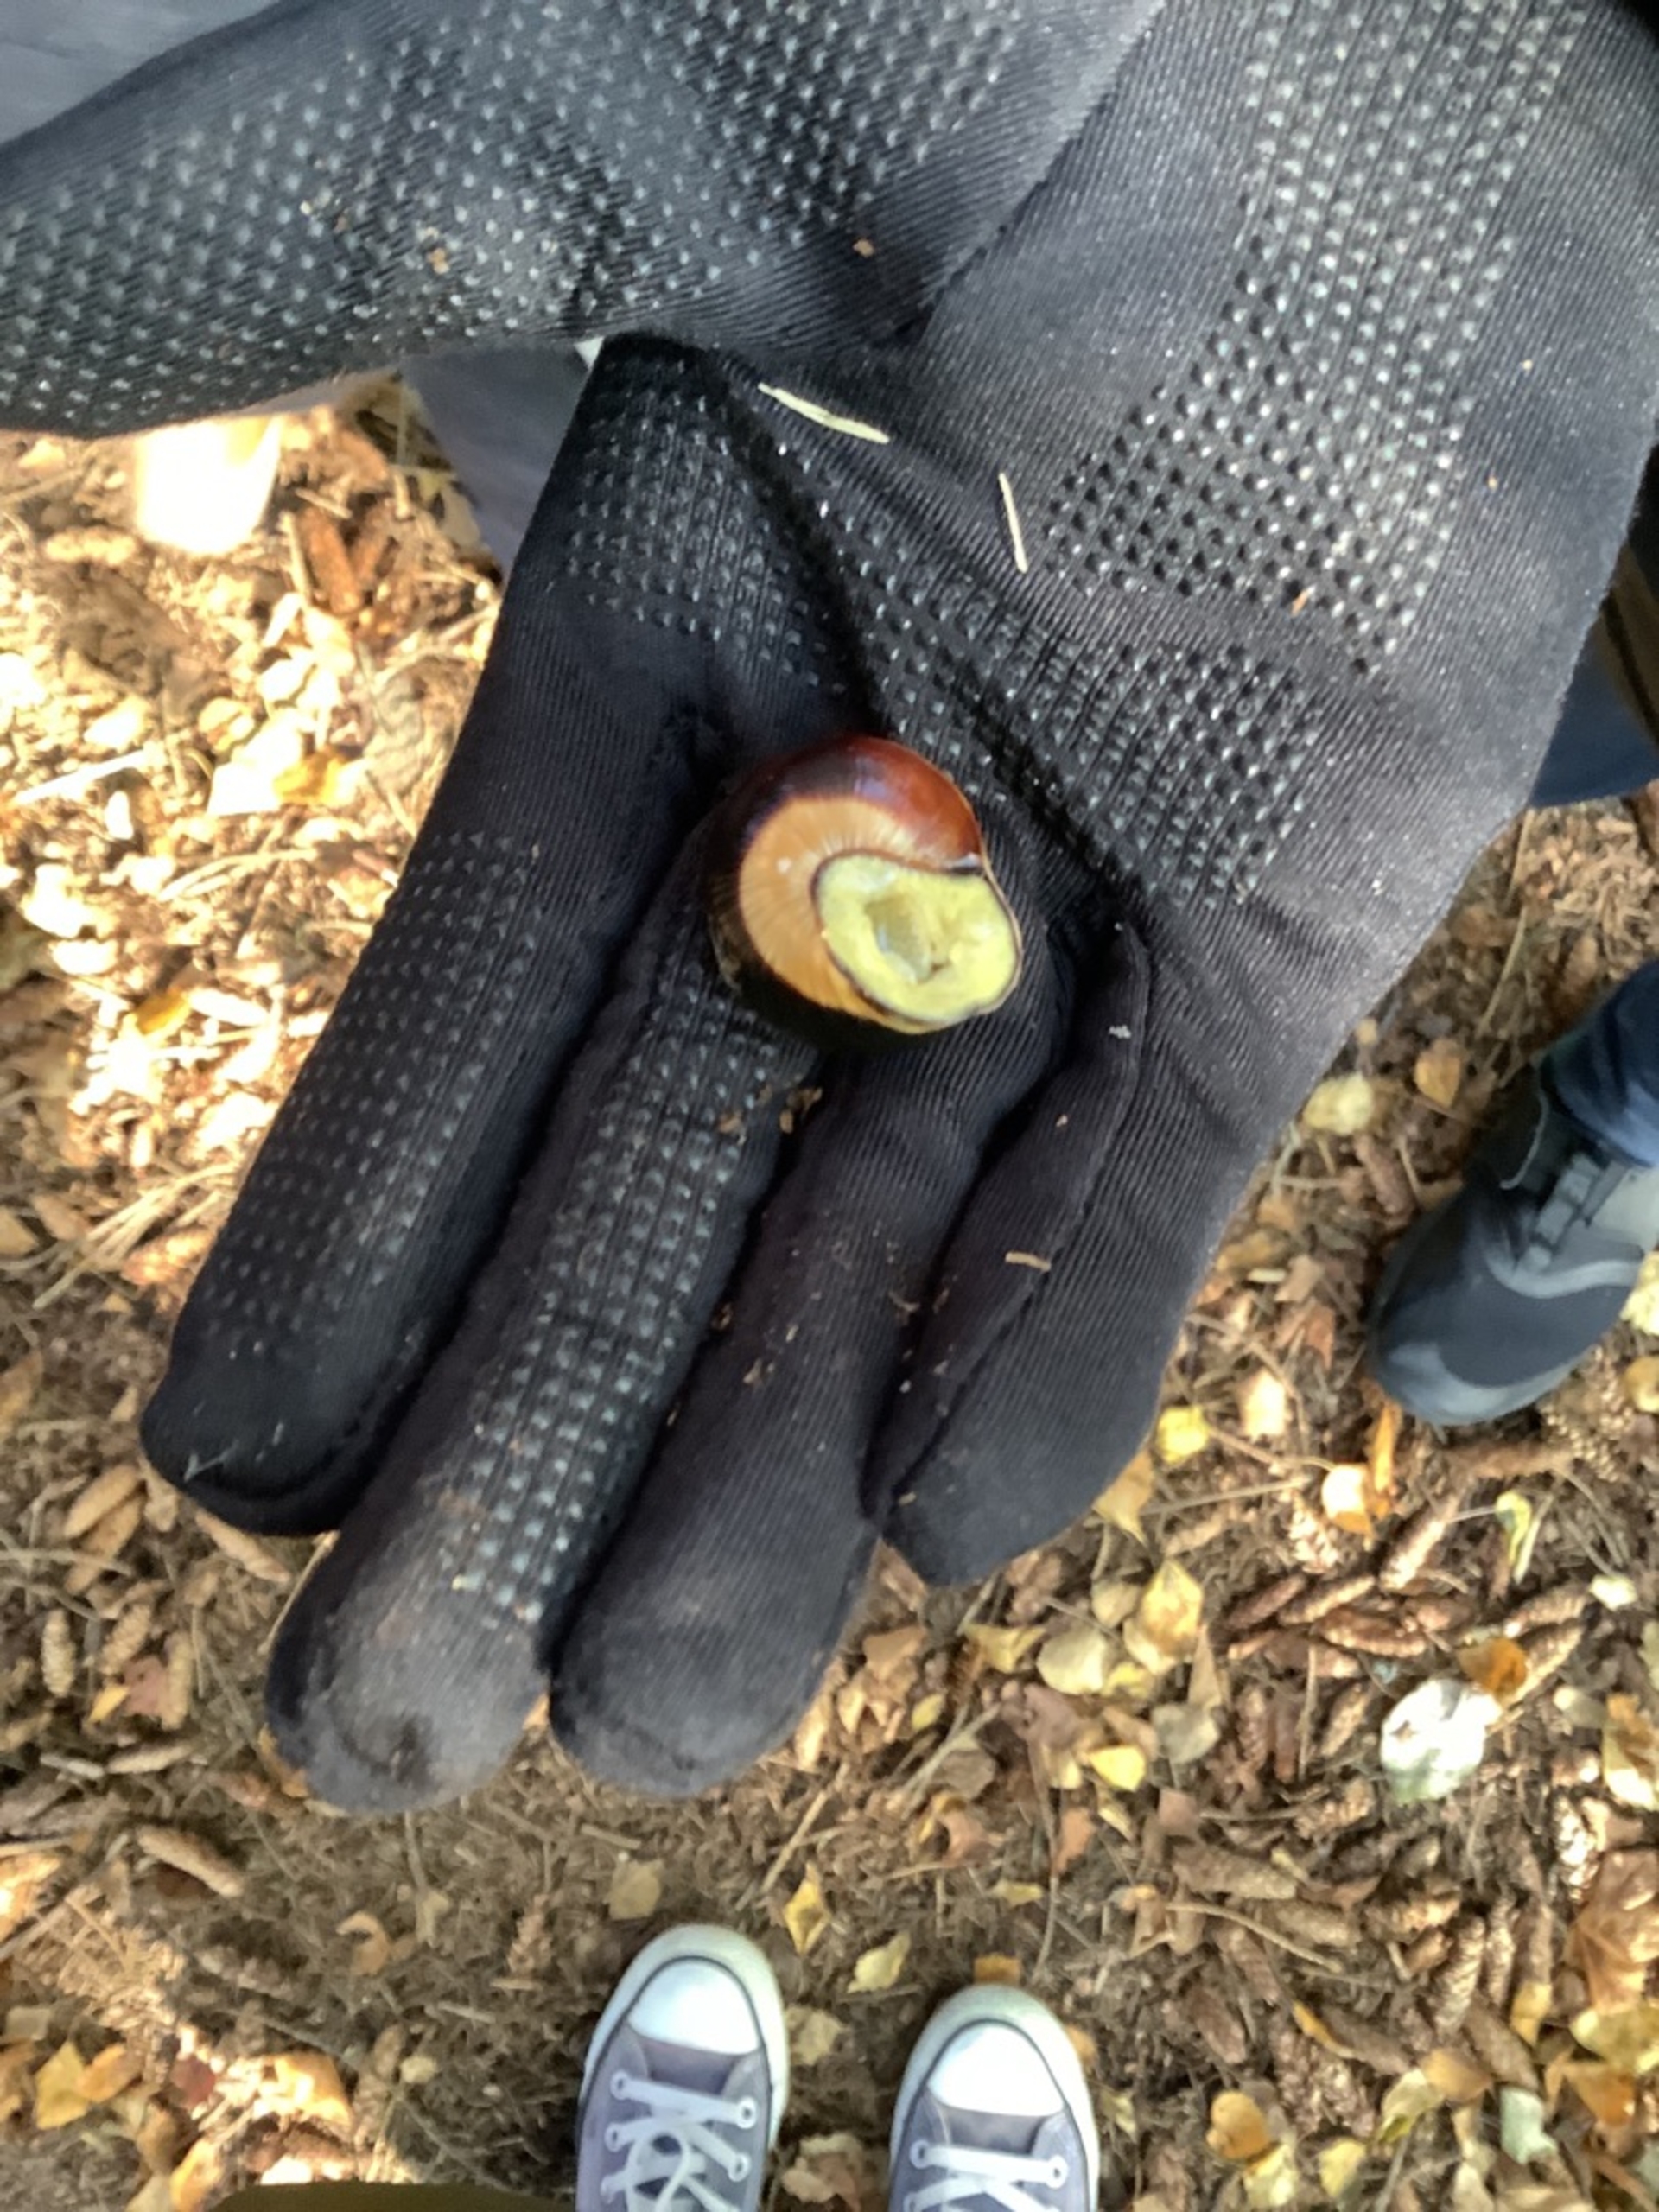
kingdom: Animalia
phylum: Mollusca
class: Gastropoda
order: Stylommatophora
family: Helicidae
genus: Cepaea
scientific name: Cepaea nemoralis
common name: Lundsnegl
